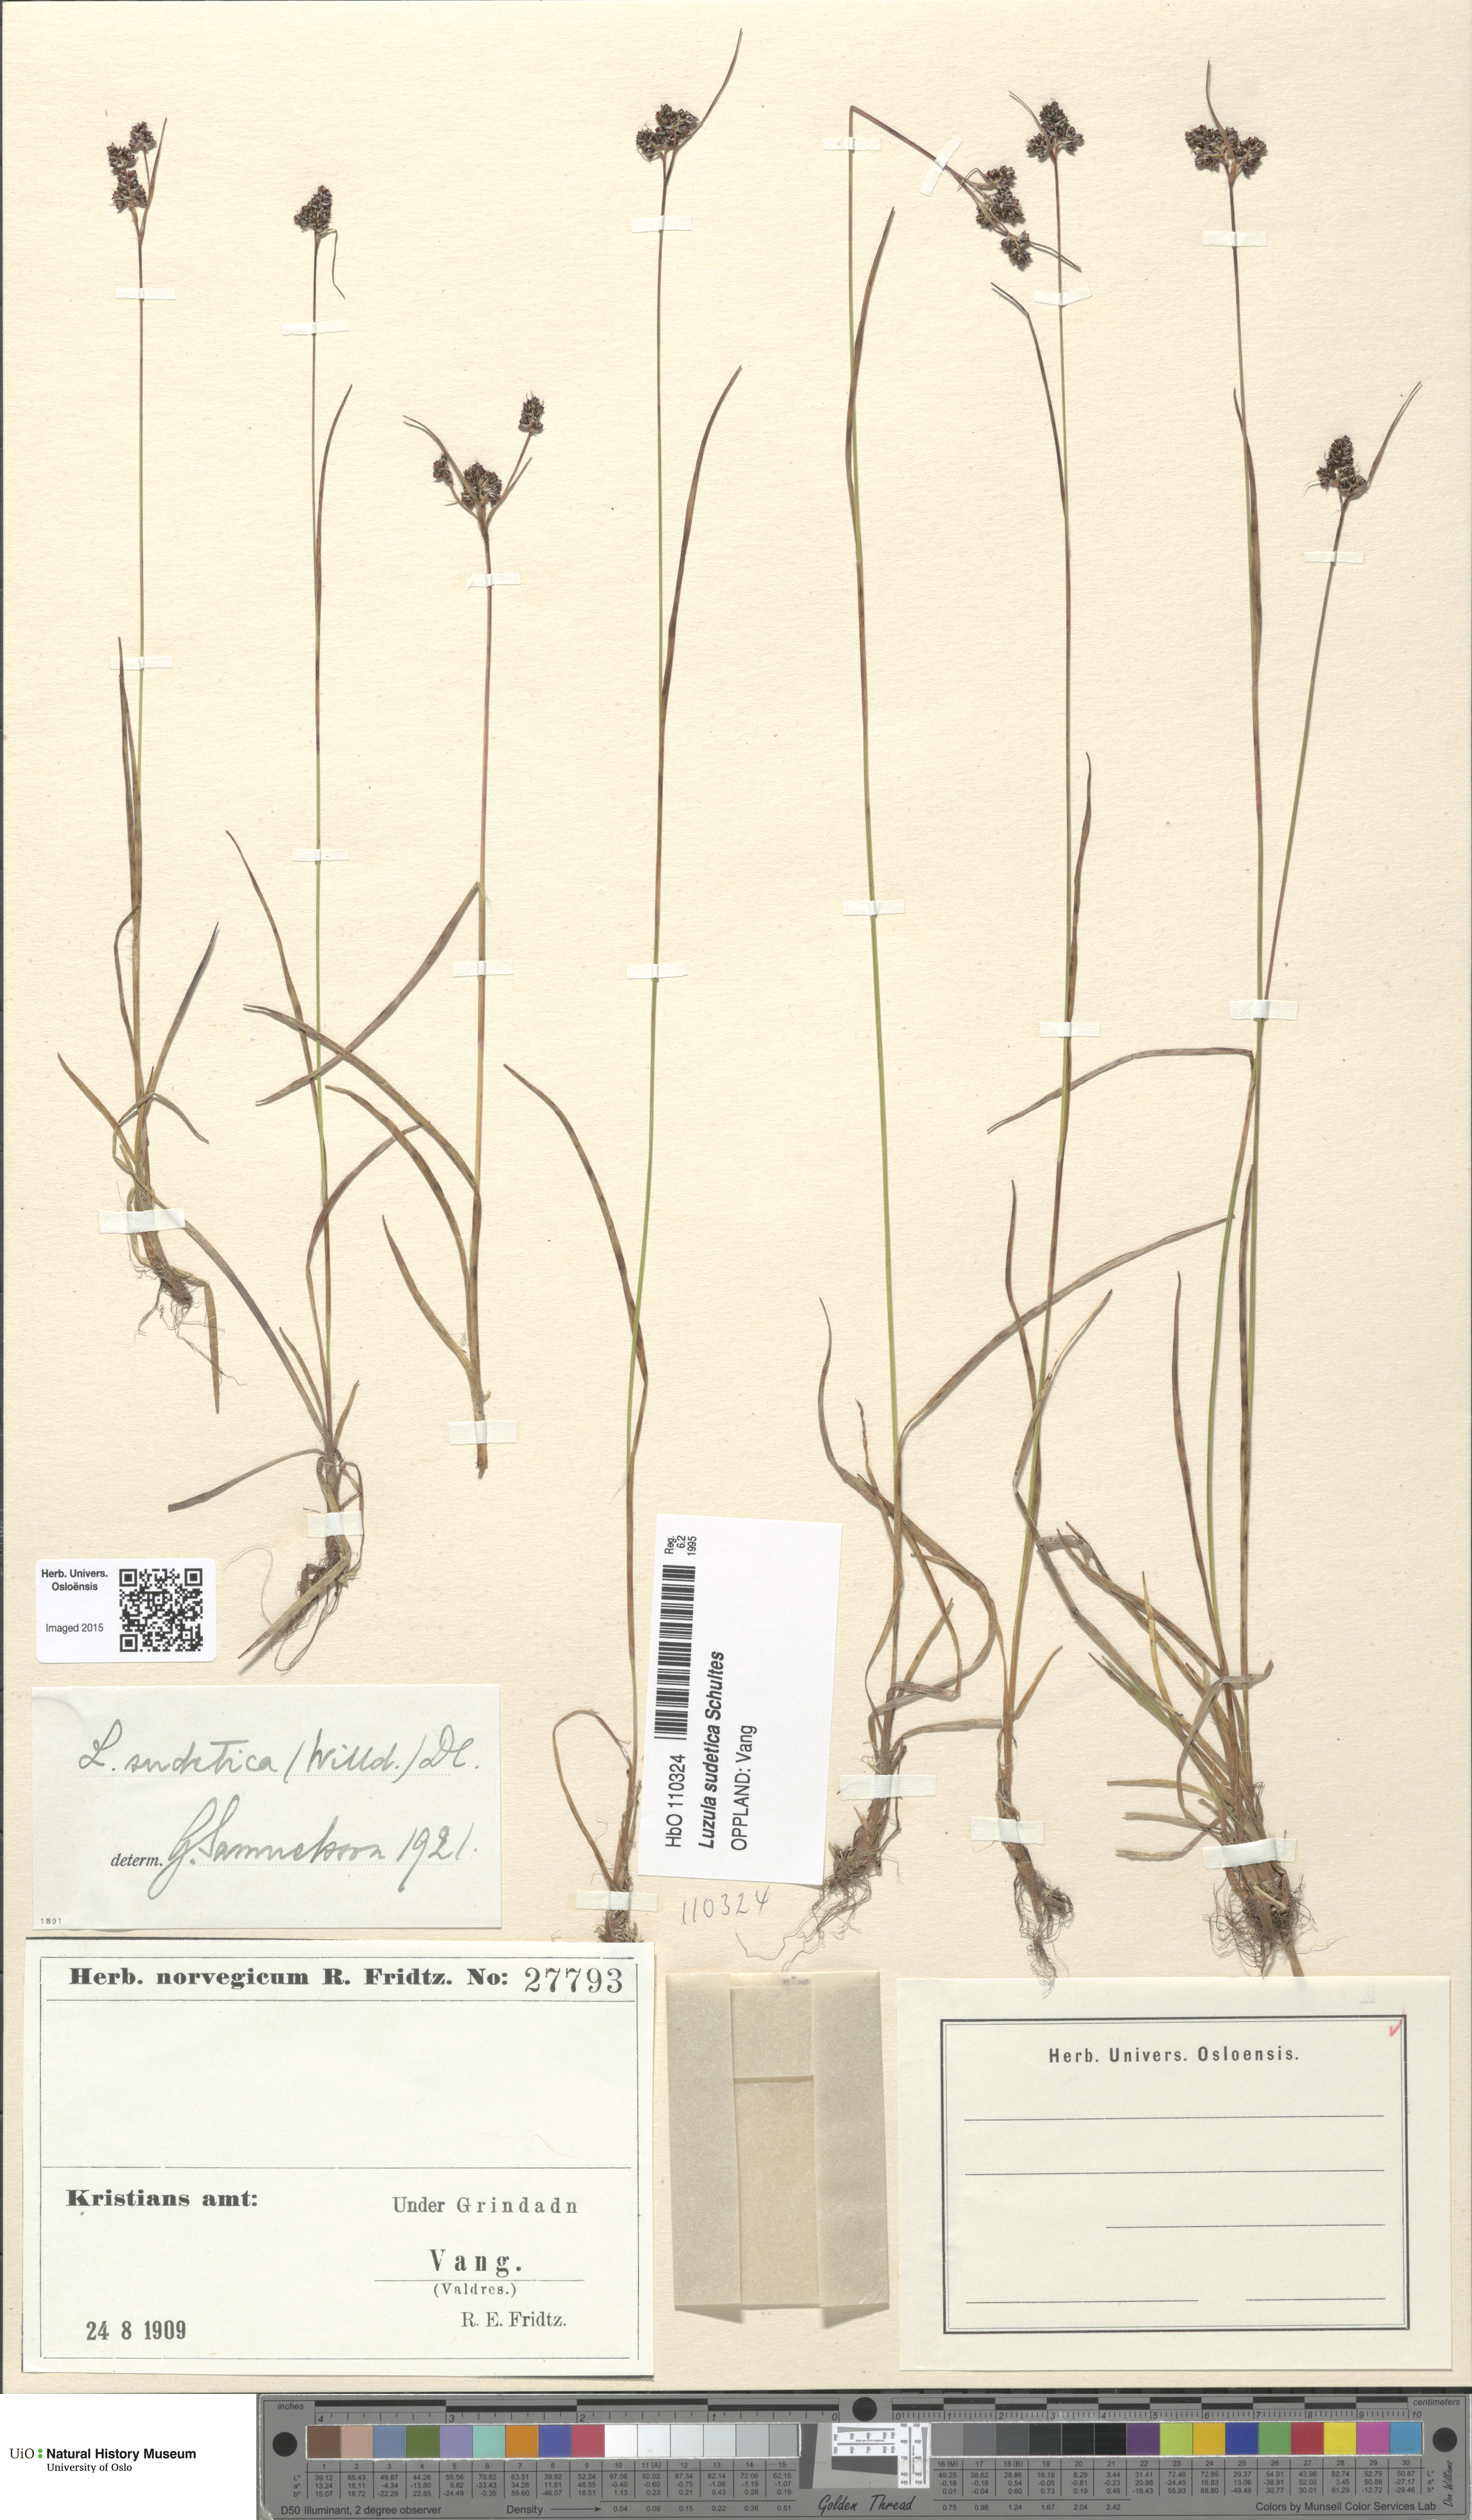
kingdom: Plantae
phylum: Tracheophyta
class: Liliopsida
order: Poales
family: Juncaceae
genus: Luzula
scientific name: Luzula sudetica
